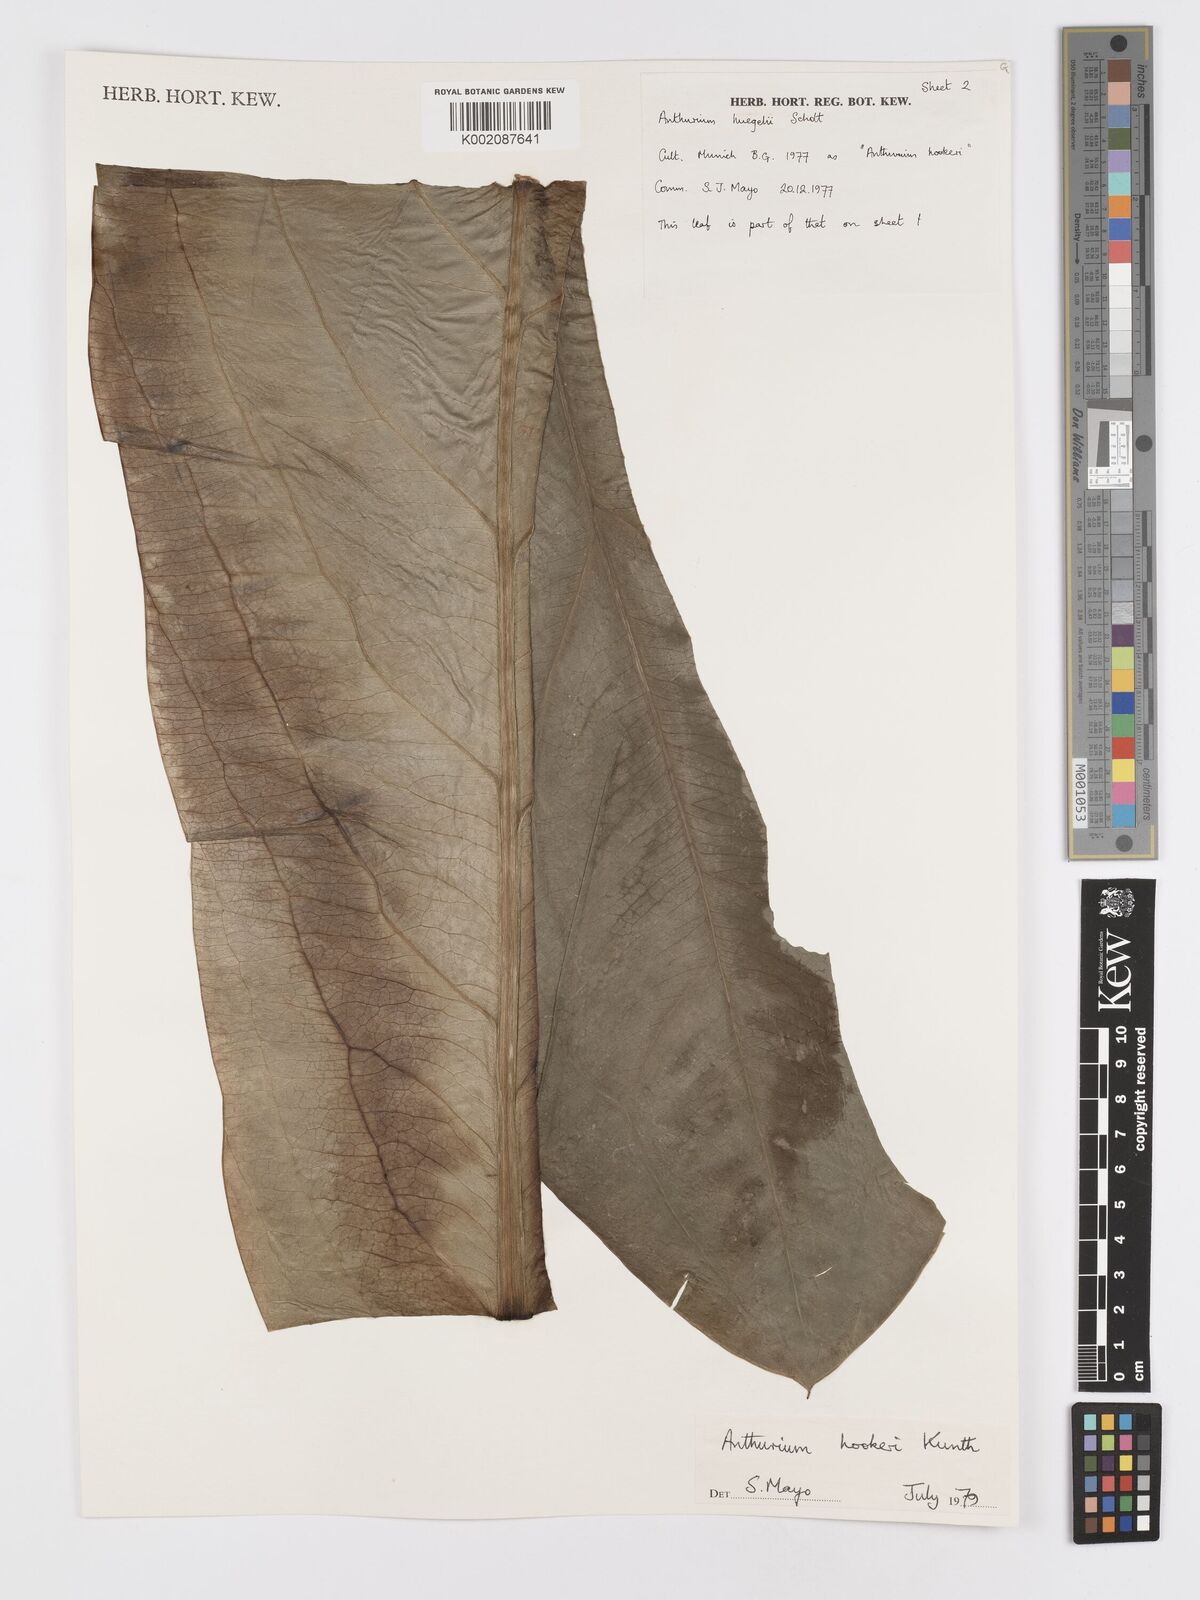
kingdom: Plantae
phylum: Tracheophyta
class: Liliopsida
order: Alismatales
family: Araceae
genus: Anthurium
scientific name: Anthurium hookeri
